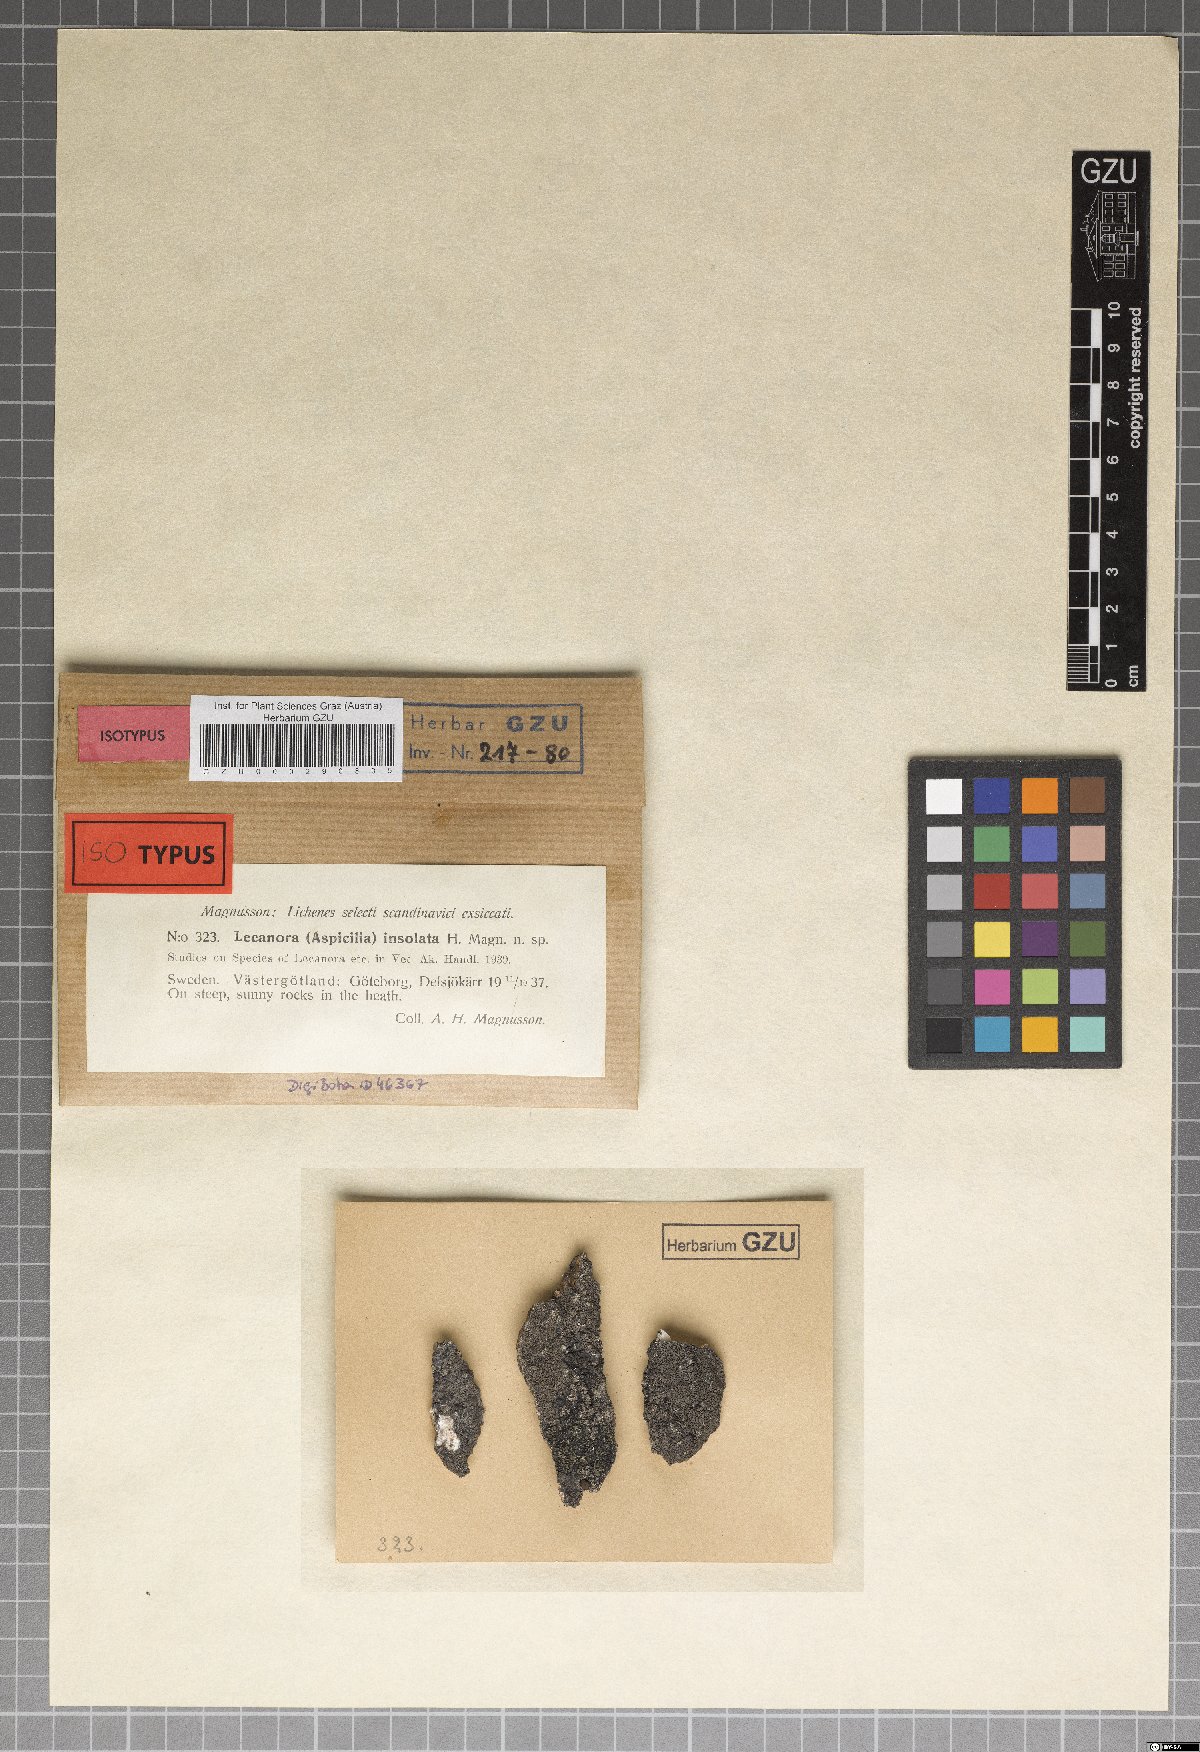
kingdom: Fungi
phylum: Ascomycota
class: Lecanoromycetes
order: Pertusariales
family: Megasporaceae
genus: Aspicilia
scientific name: Aspicilia grisea
